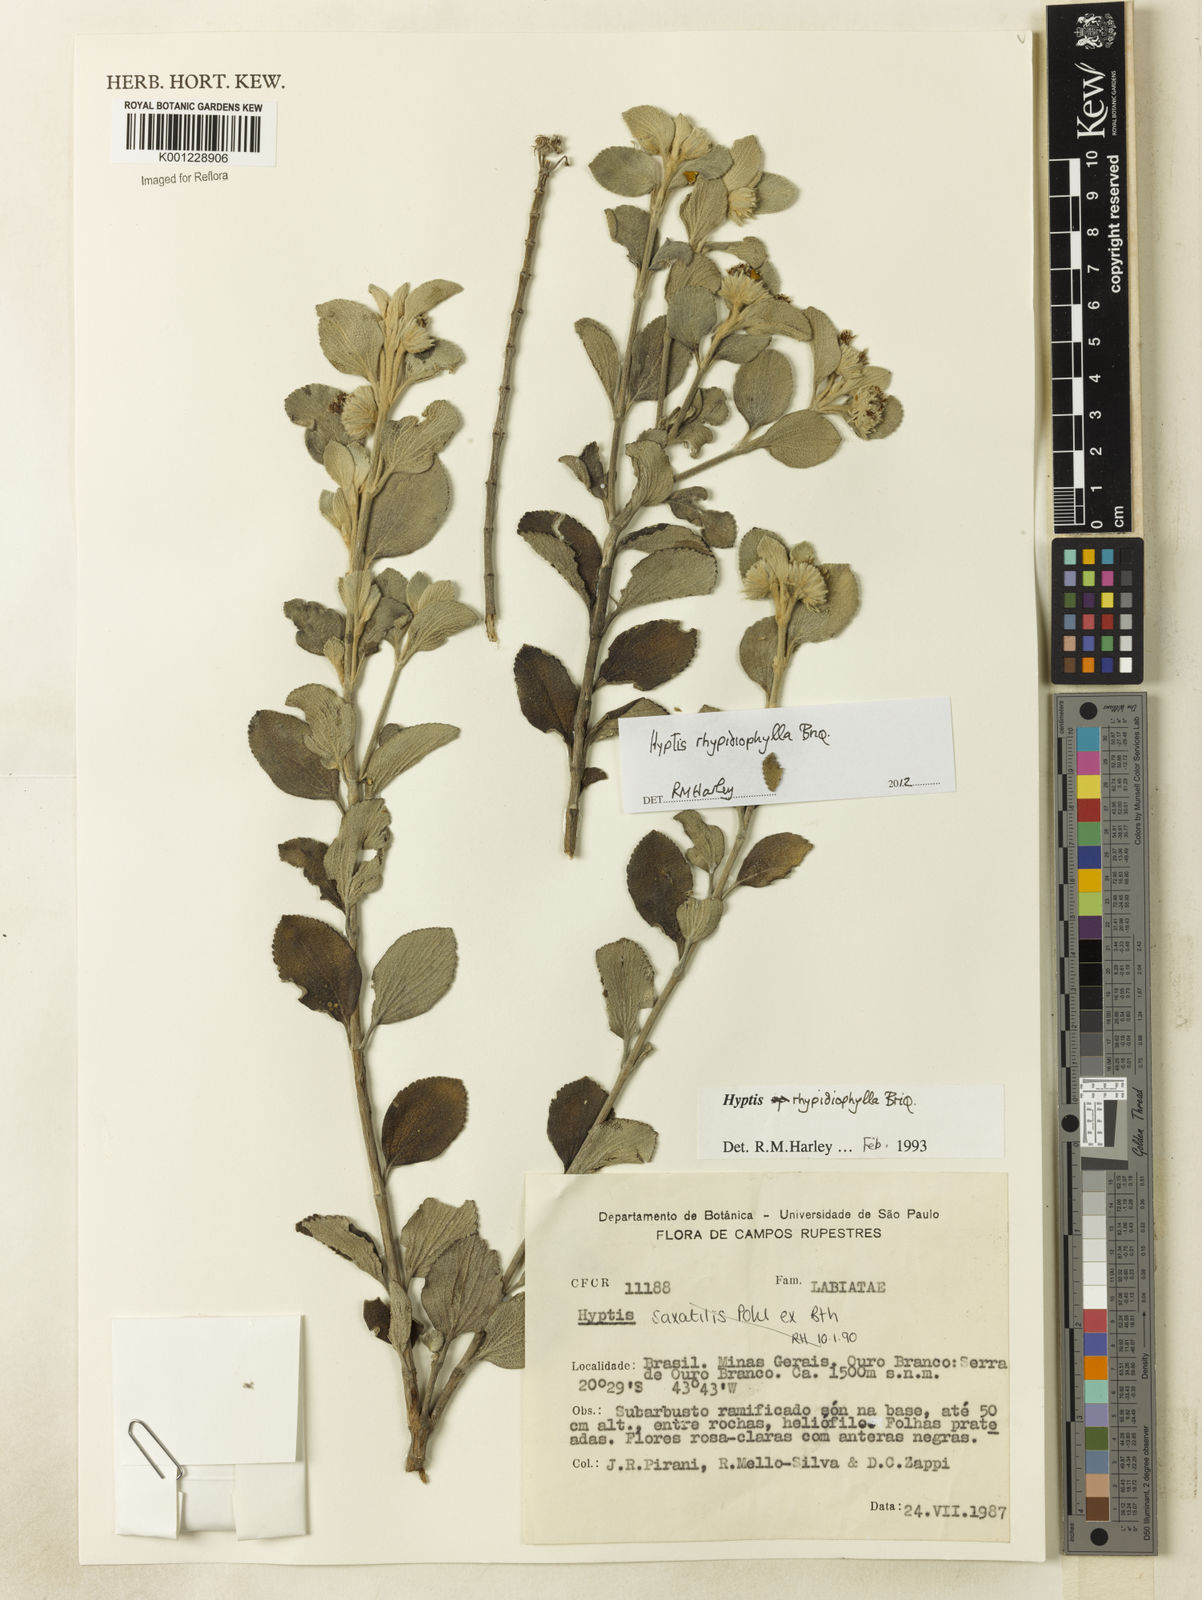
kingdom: Plantae
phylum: Tracheophyta
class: Magnoliopsida
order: Lamiales
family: Lamiaceae
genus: Hyptis
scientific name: Hyptis rhypidiophylla
